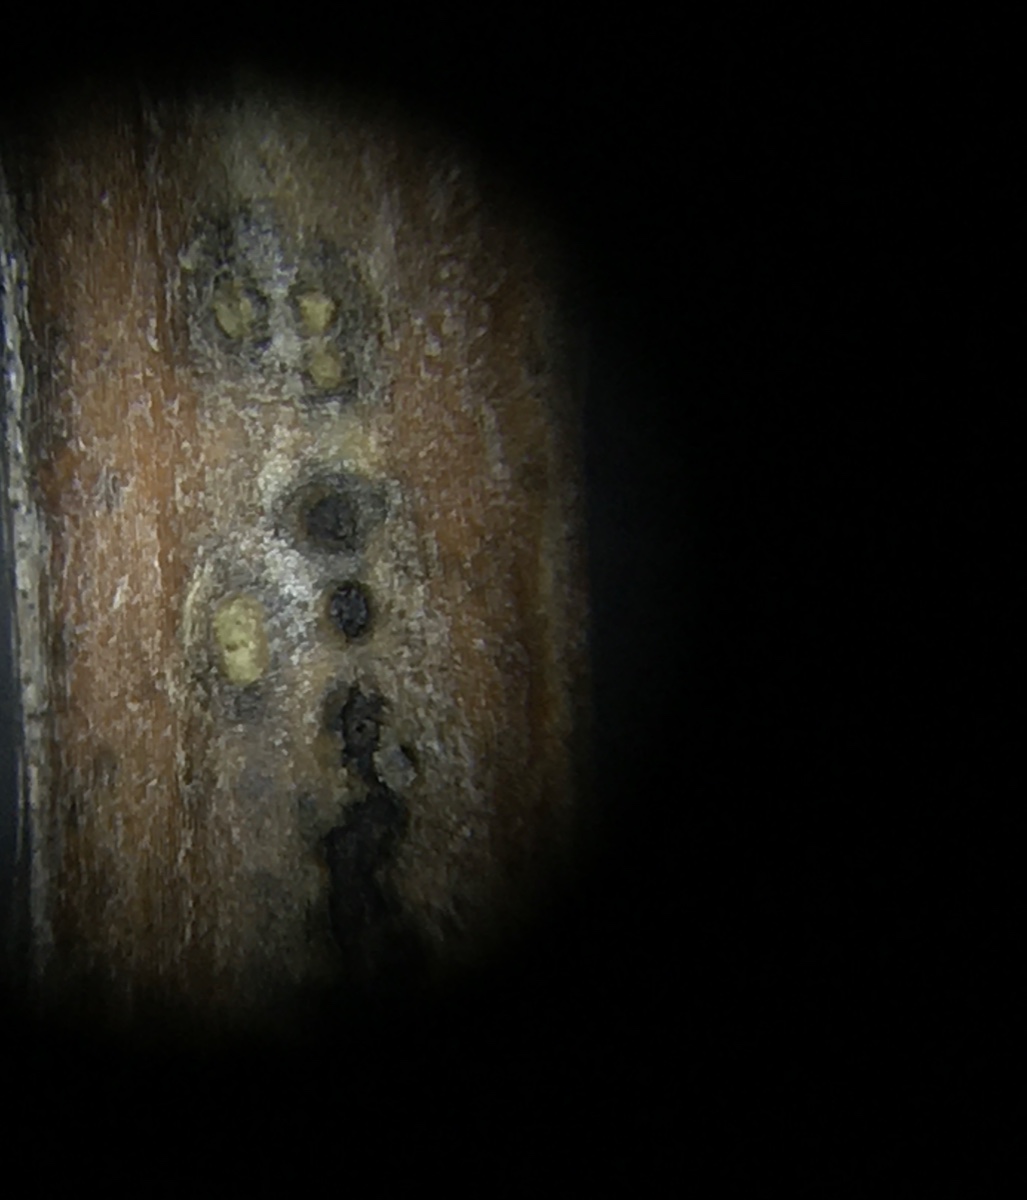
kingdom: Fungi
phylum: Ascomycota
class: Dothideomycetes
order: Botryosphaeriales
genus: Camarosporium
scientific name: Camarosporium
